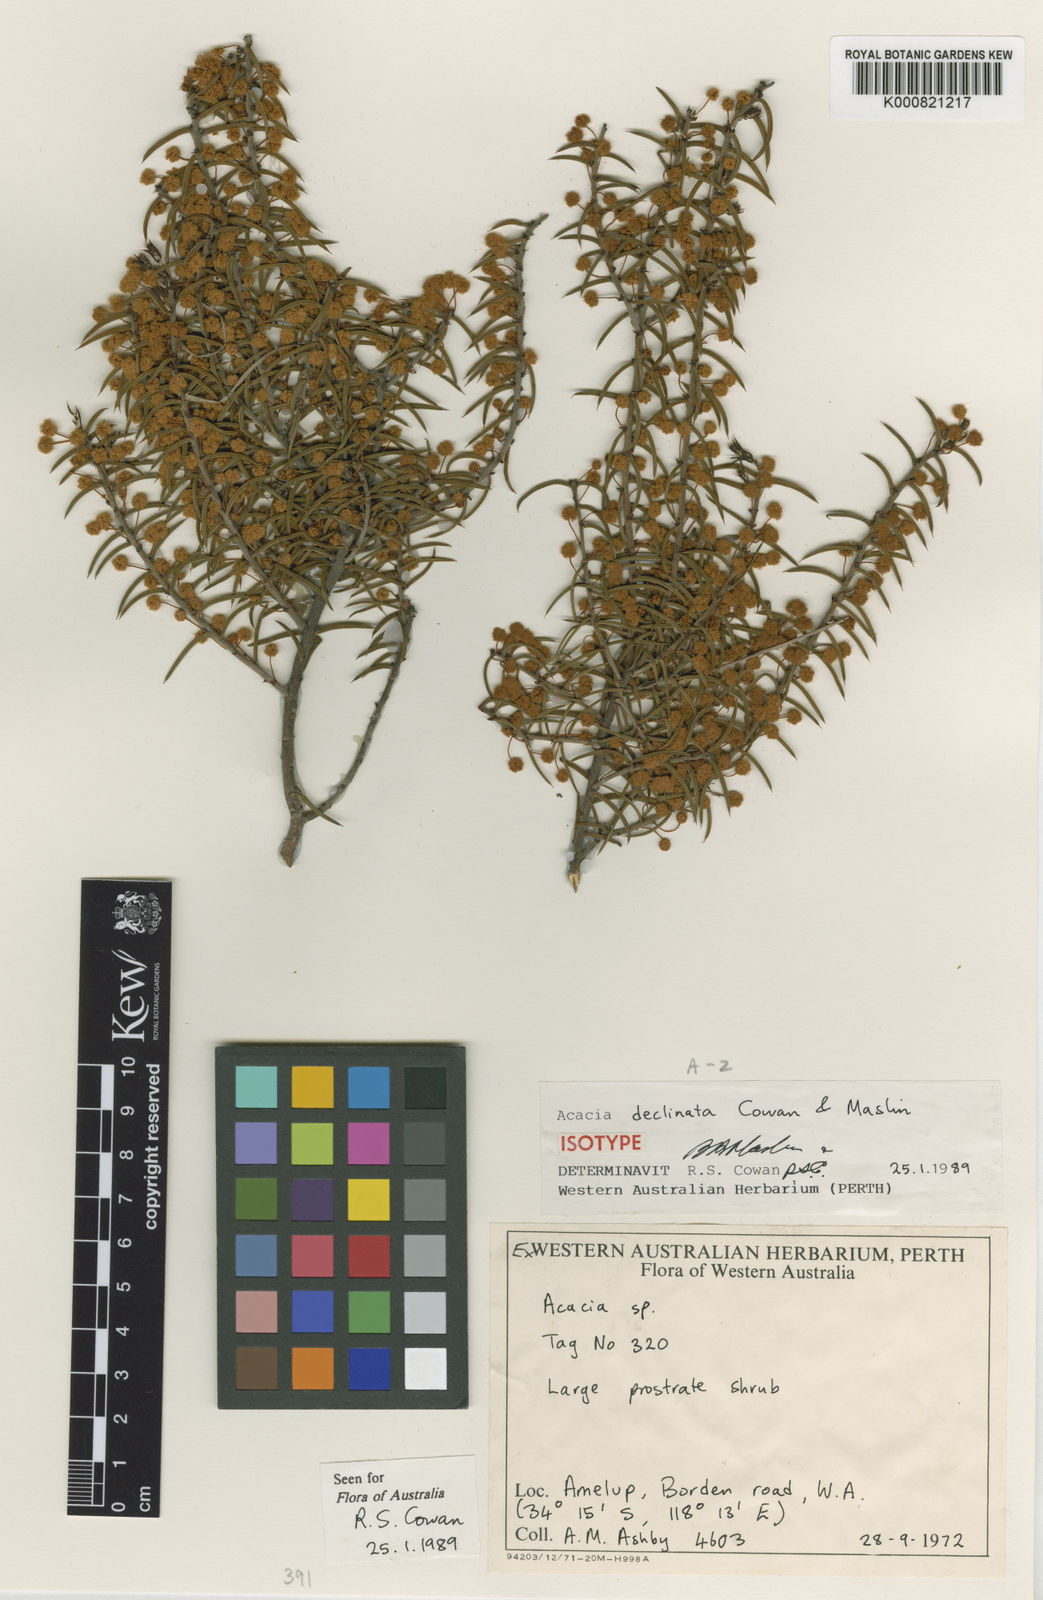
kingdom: Plantae
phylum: Tracheophyta
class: Magnoliopsida
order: Fabales
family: Fabaceae
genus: Acacia
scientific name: Acacia declinata
